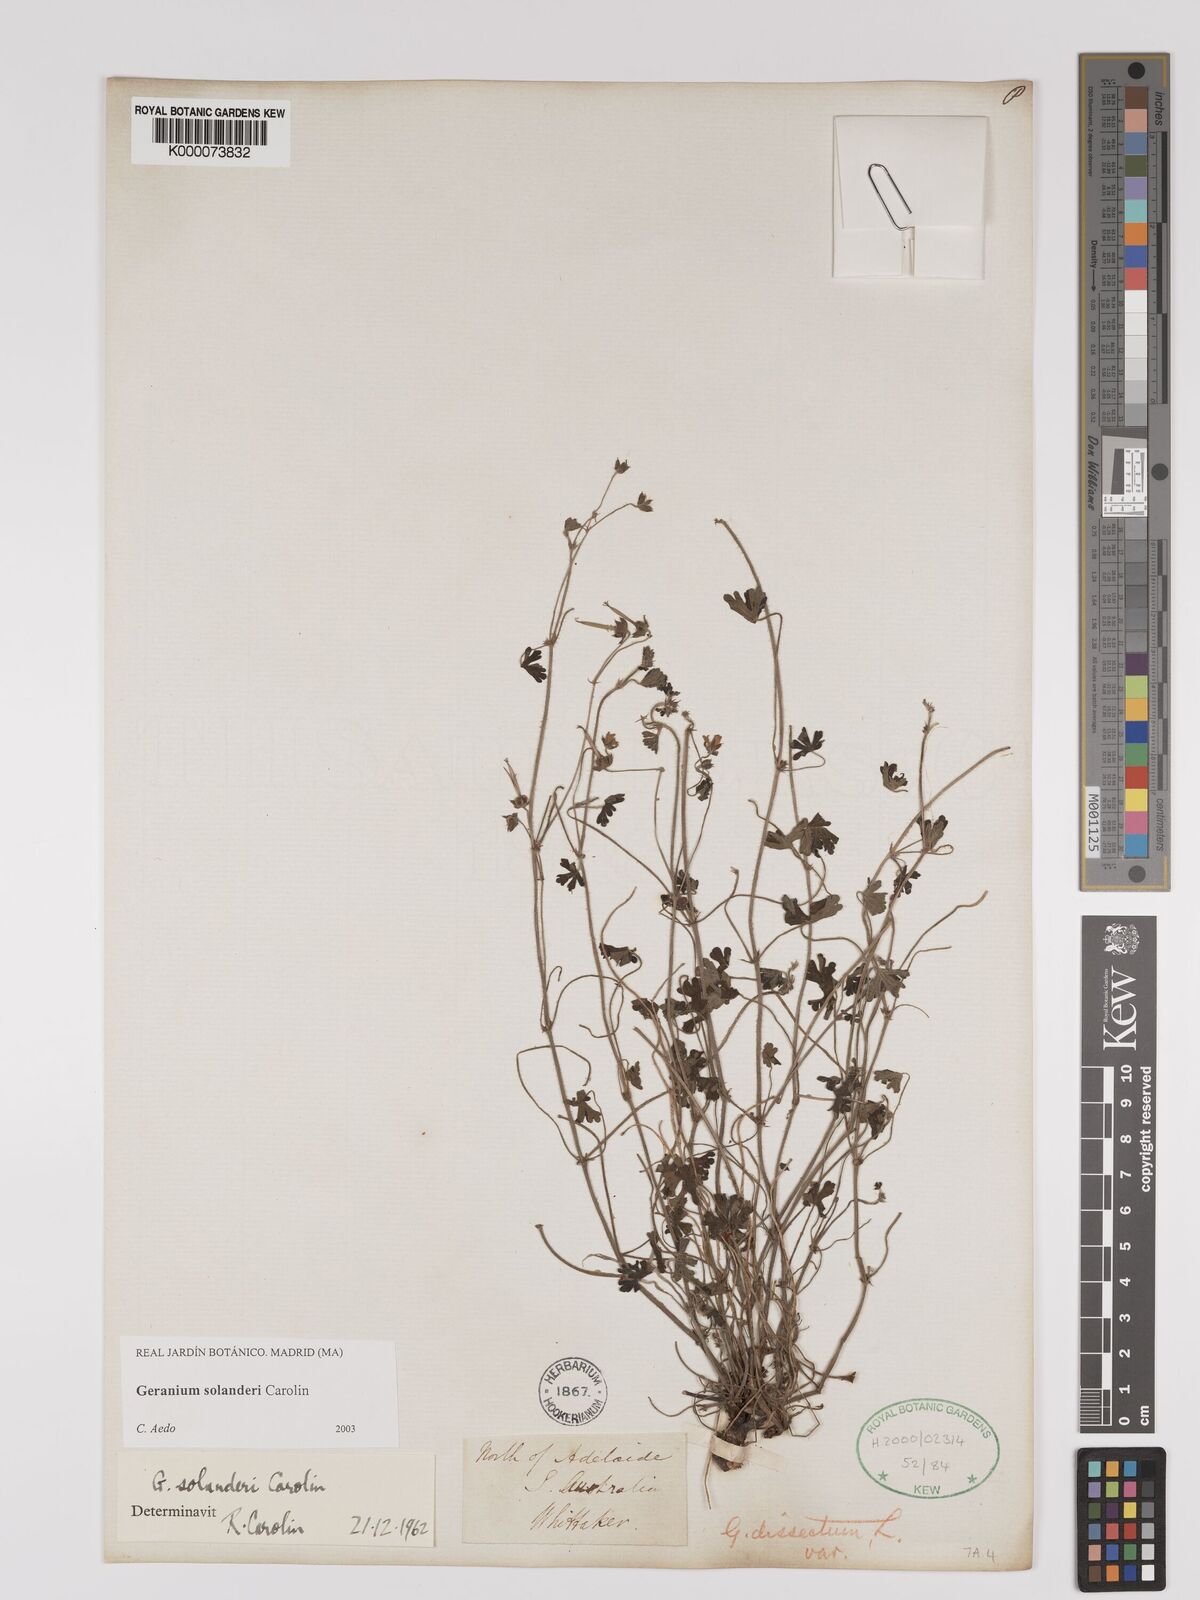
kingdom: Plantae
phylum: Tracheophyta
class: Magnoliopsida
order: Geraniales
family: Geraniaceae
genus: Geranium
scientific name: Geranium solanderi
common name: Solander's geranium
